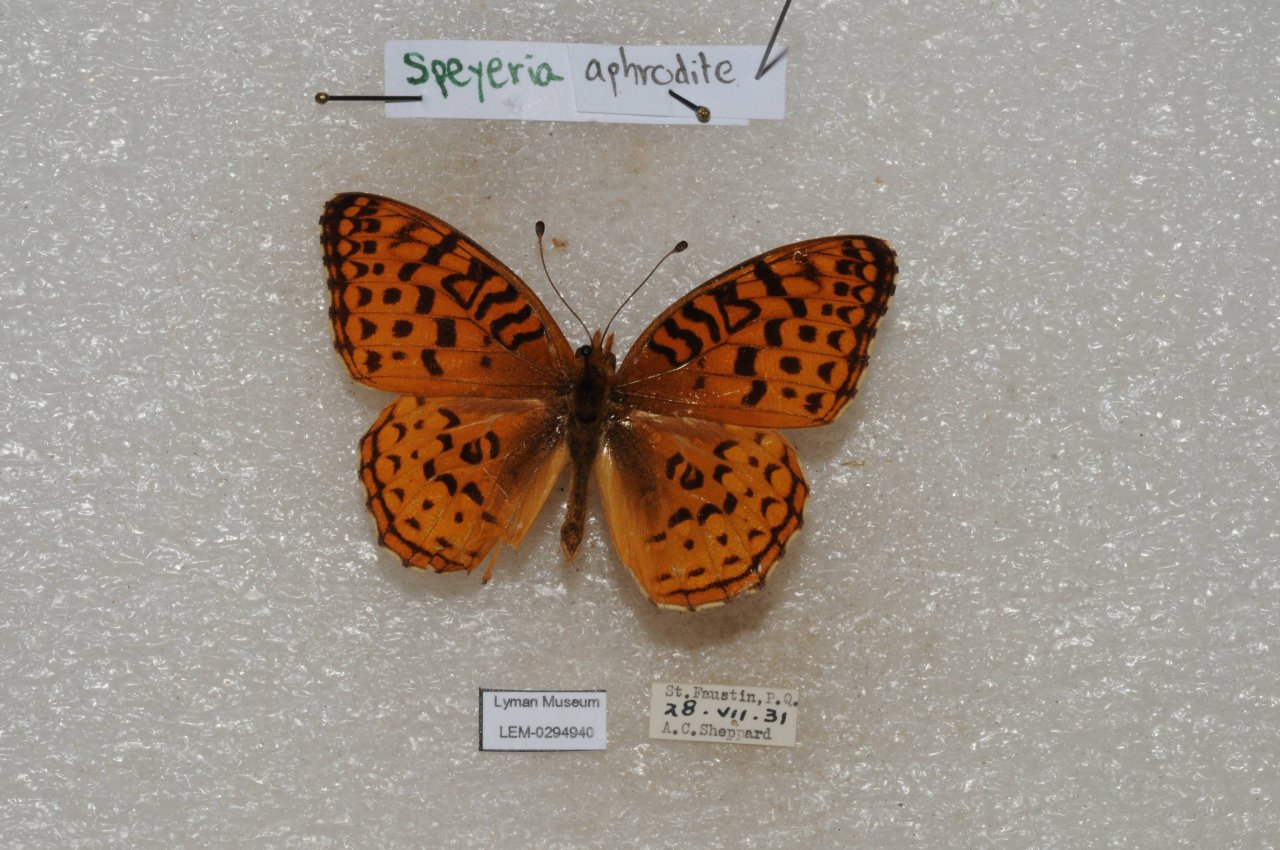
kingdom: Animalia
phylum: Arthropoda
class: Insecta
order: Lepidoptera
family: Nymphalidae
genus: Speyeria
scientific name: Speyeria aphrodite
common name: Aphrodite Fritillary
